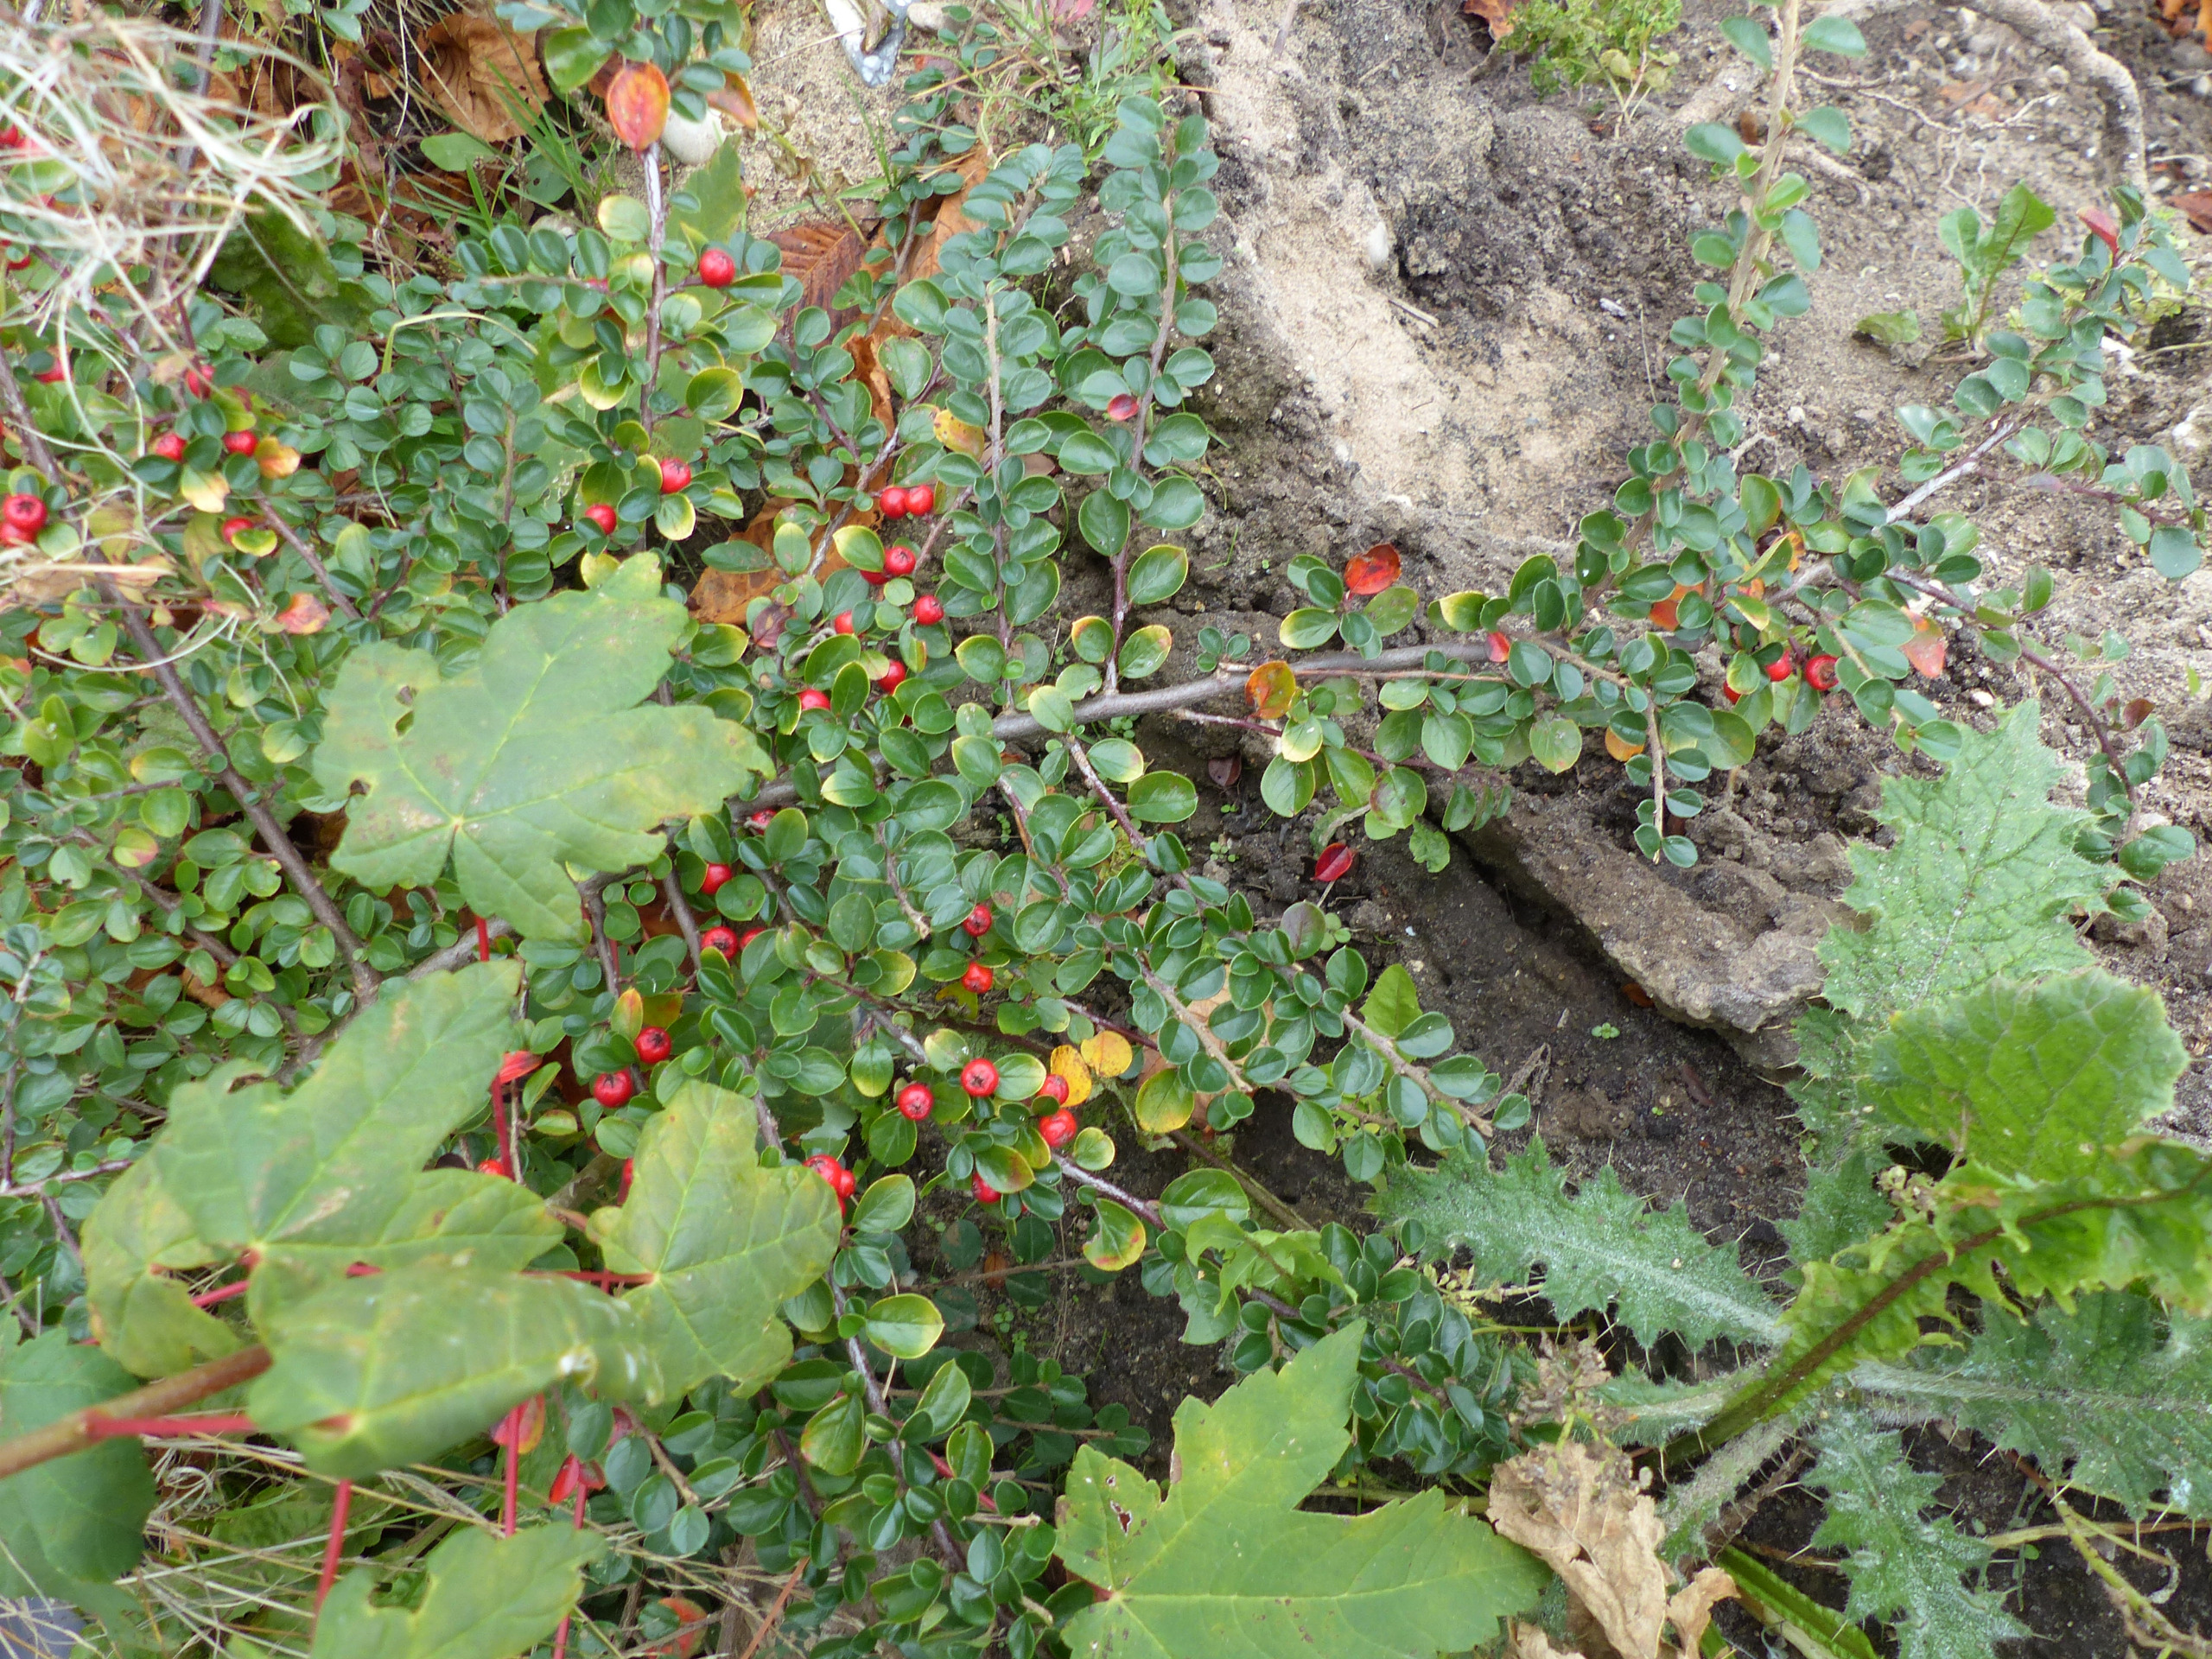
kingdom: Plantae
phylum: Tracheophyta
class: Magnoliopsida
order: Rosales
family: Rosaceae
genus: Cotoneaster
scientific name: Cotoneaster hjelmqvistii
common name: Hjelmqvists dværgmispel
